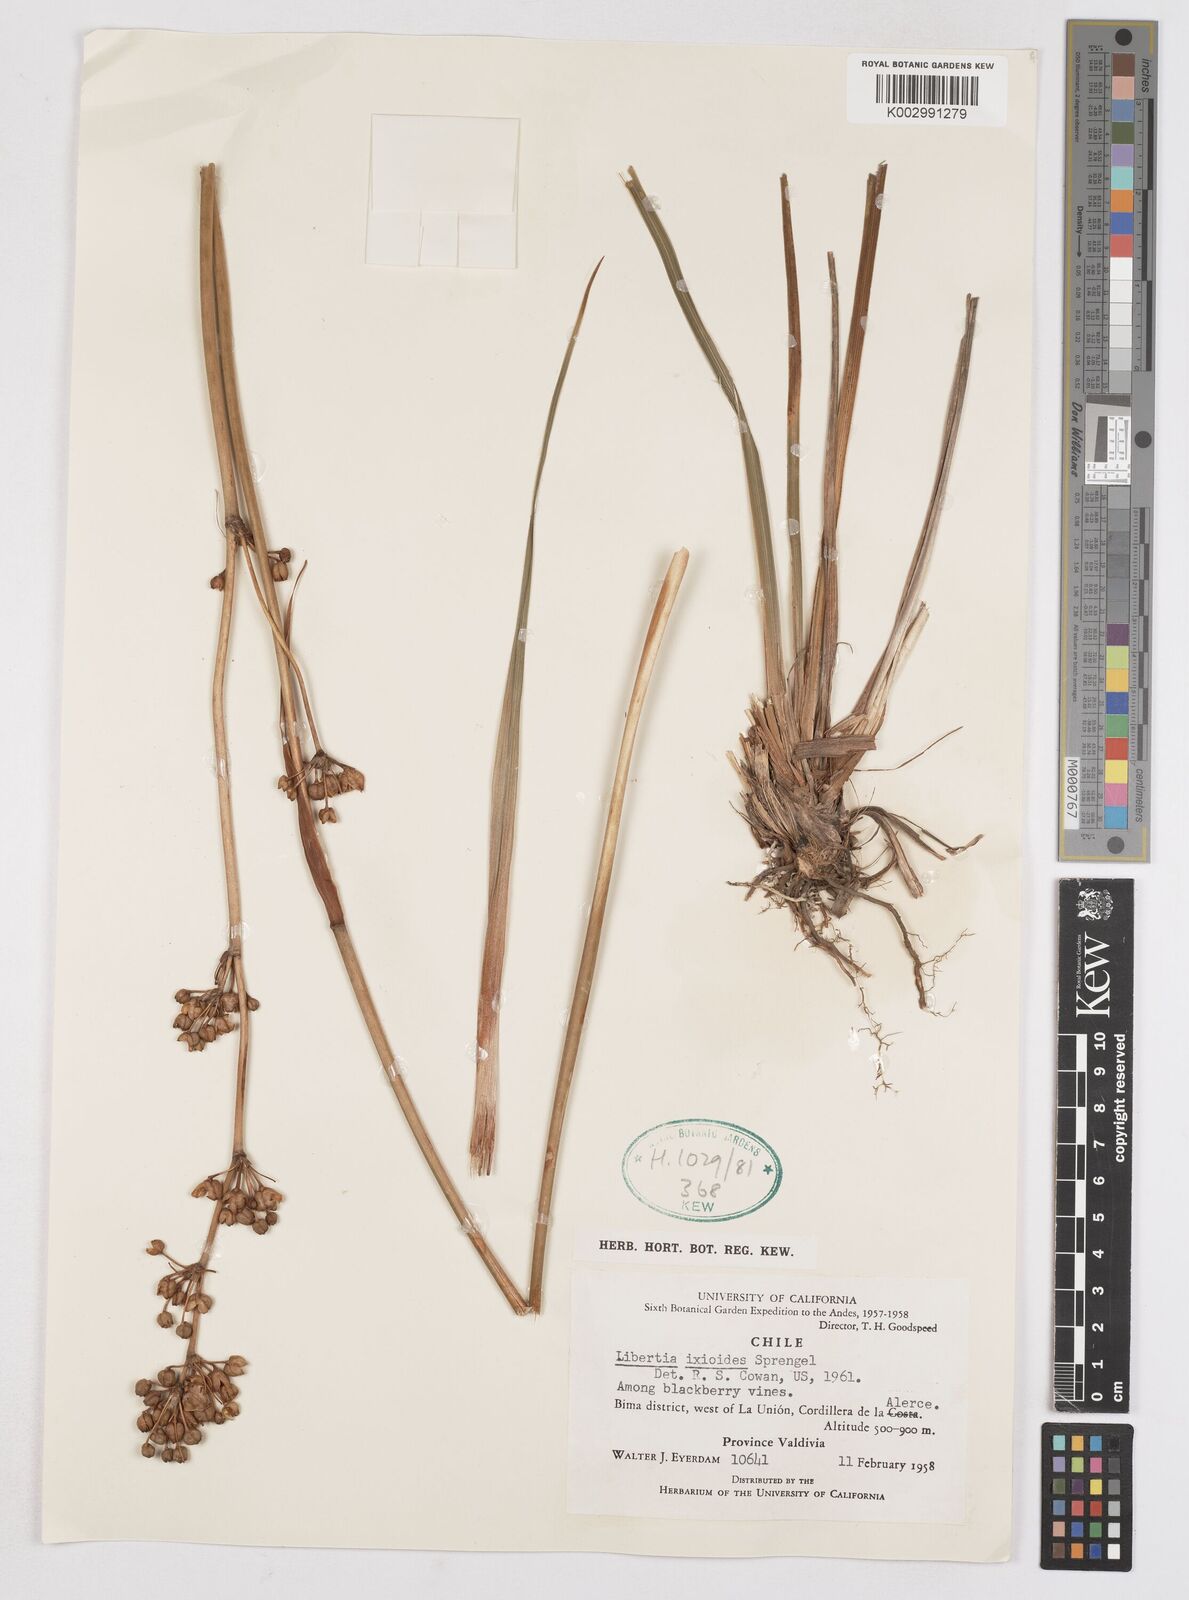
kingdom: Plantae
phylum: Tracheophyta
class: Liliopsida
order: Asparagales
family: Iridaceae
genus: Libertia
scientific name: Libertia ixioides
